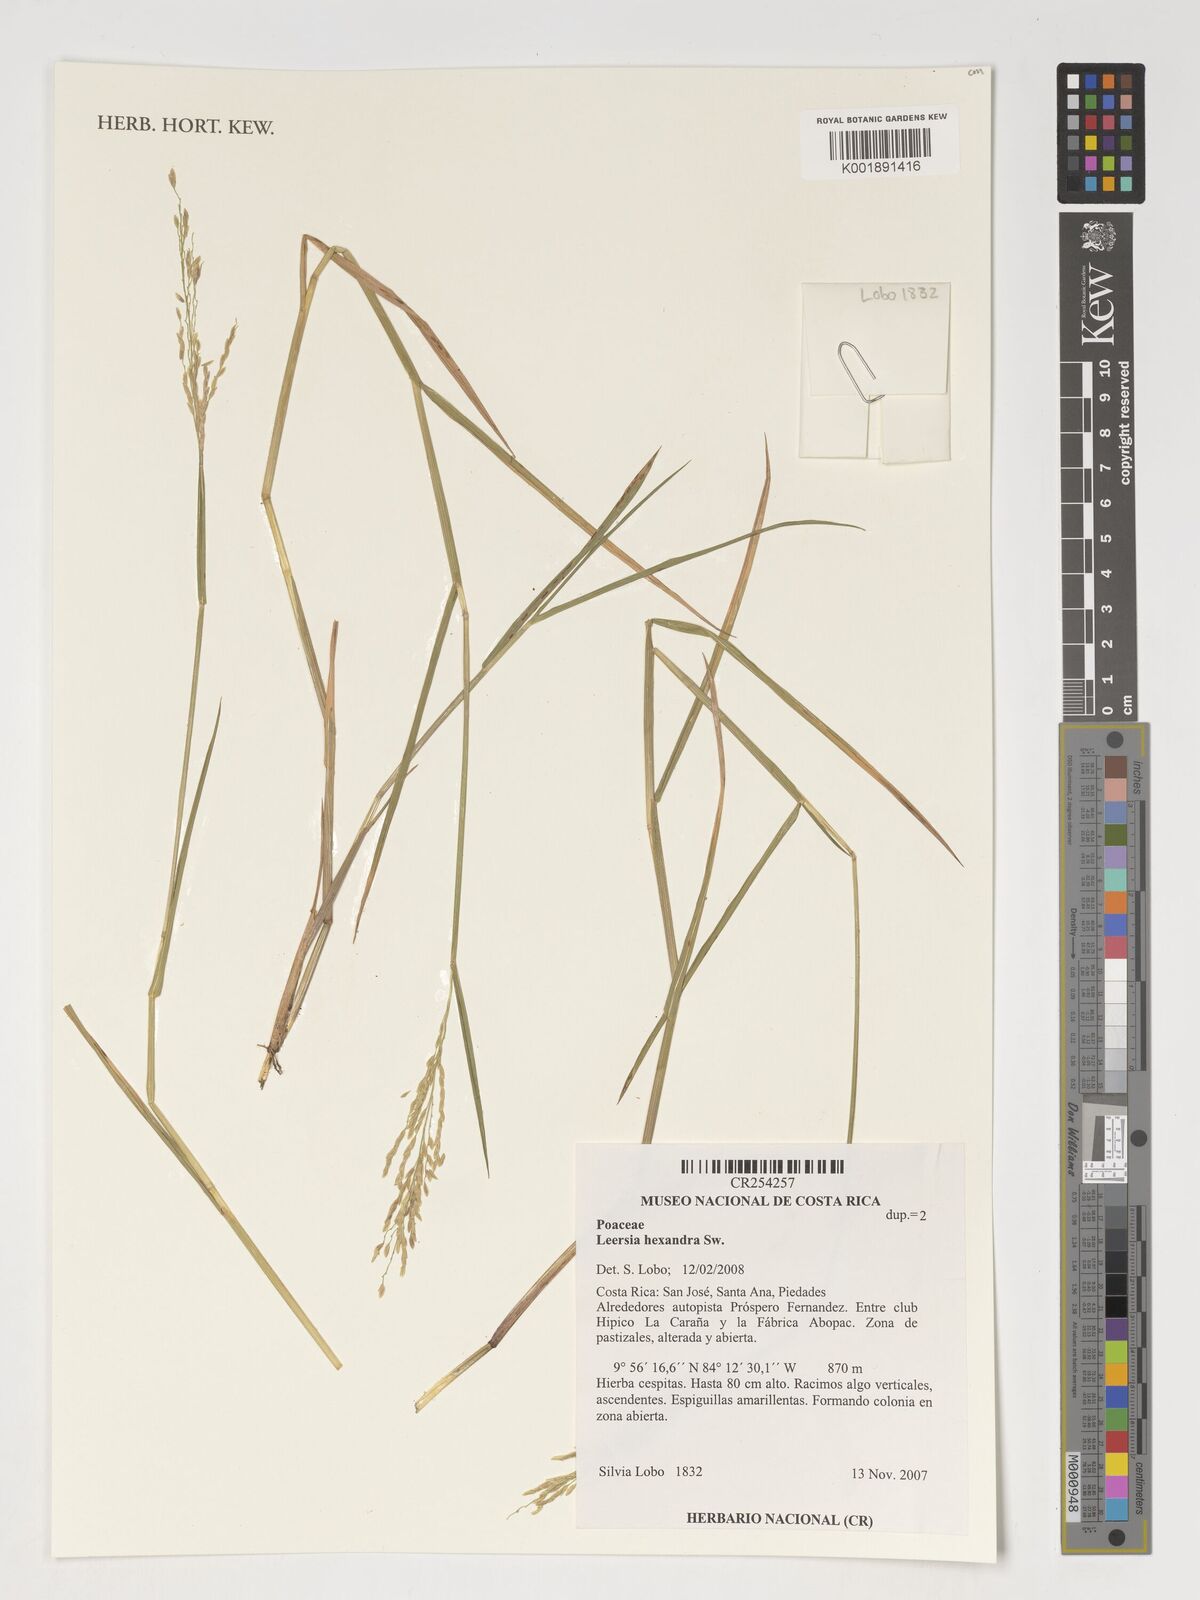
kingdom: Plantae
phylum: Tracheophyta
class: Liliopsida
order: Poales
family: Poaceae
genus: Leersia
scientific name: Leersia hexandra
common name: Southern cut grass
